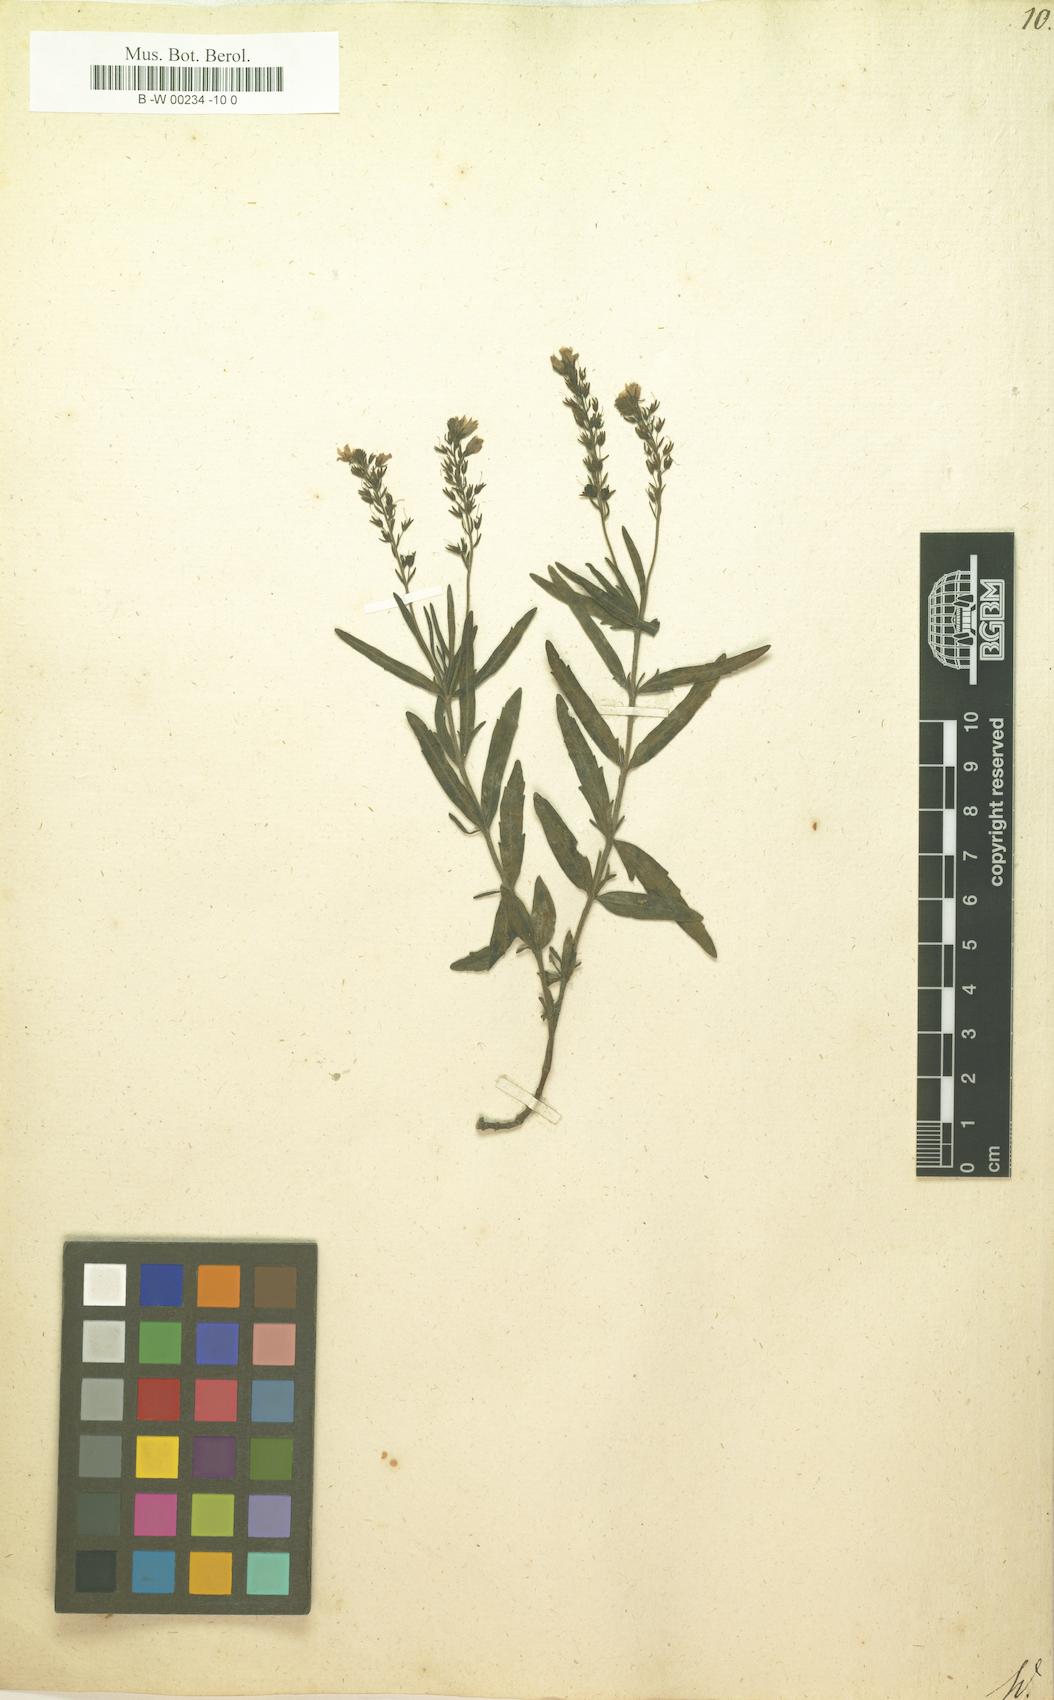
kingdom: Plantae
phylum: Tracheophyta
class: Magnoliopsida
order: Lamiales
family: Plantaginaceae
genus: Veronica
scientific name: Veronica orientalis
